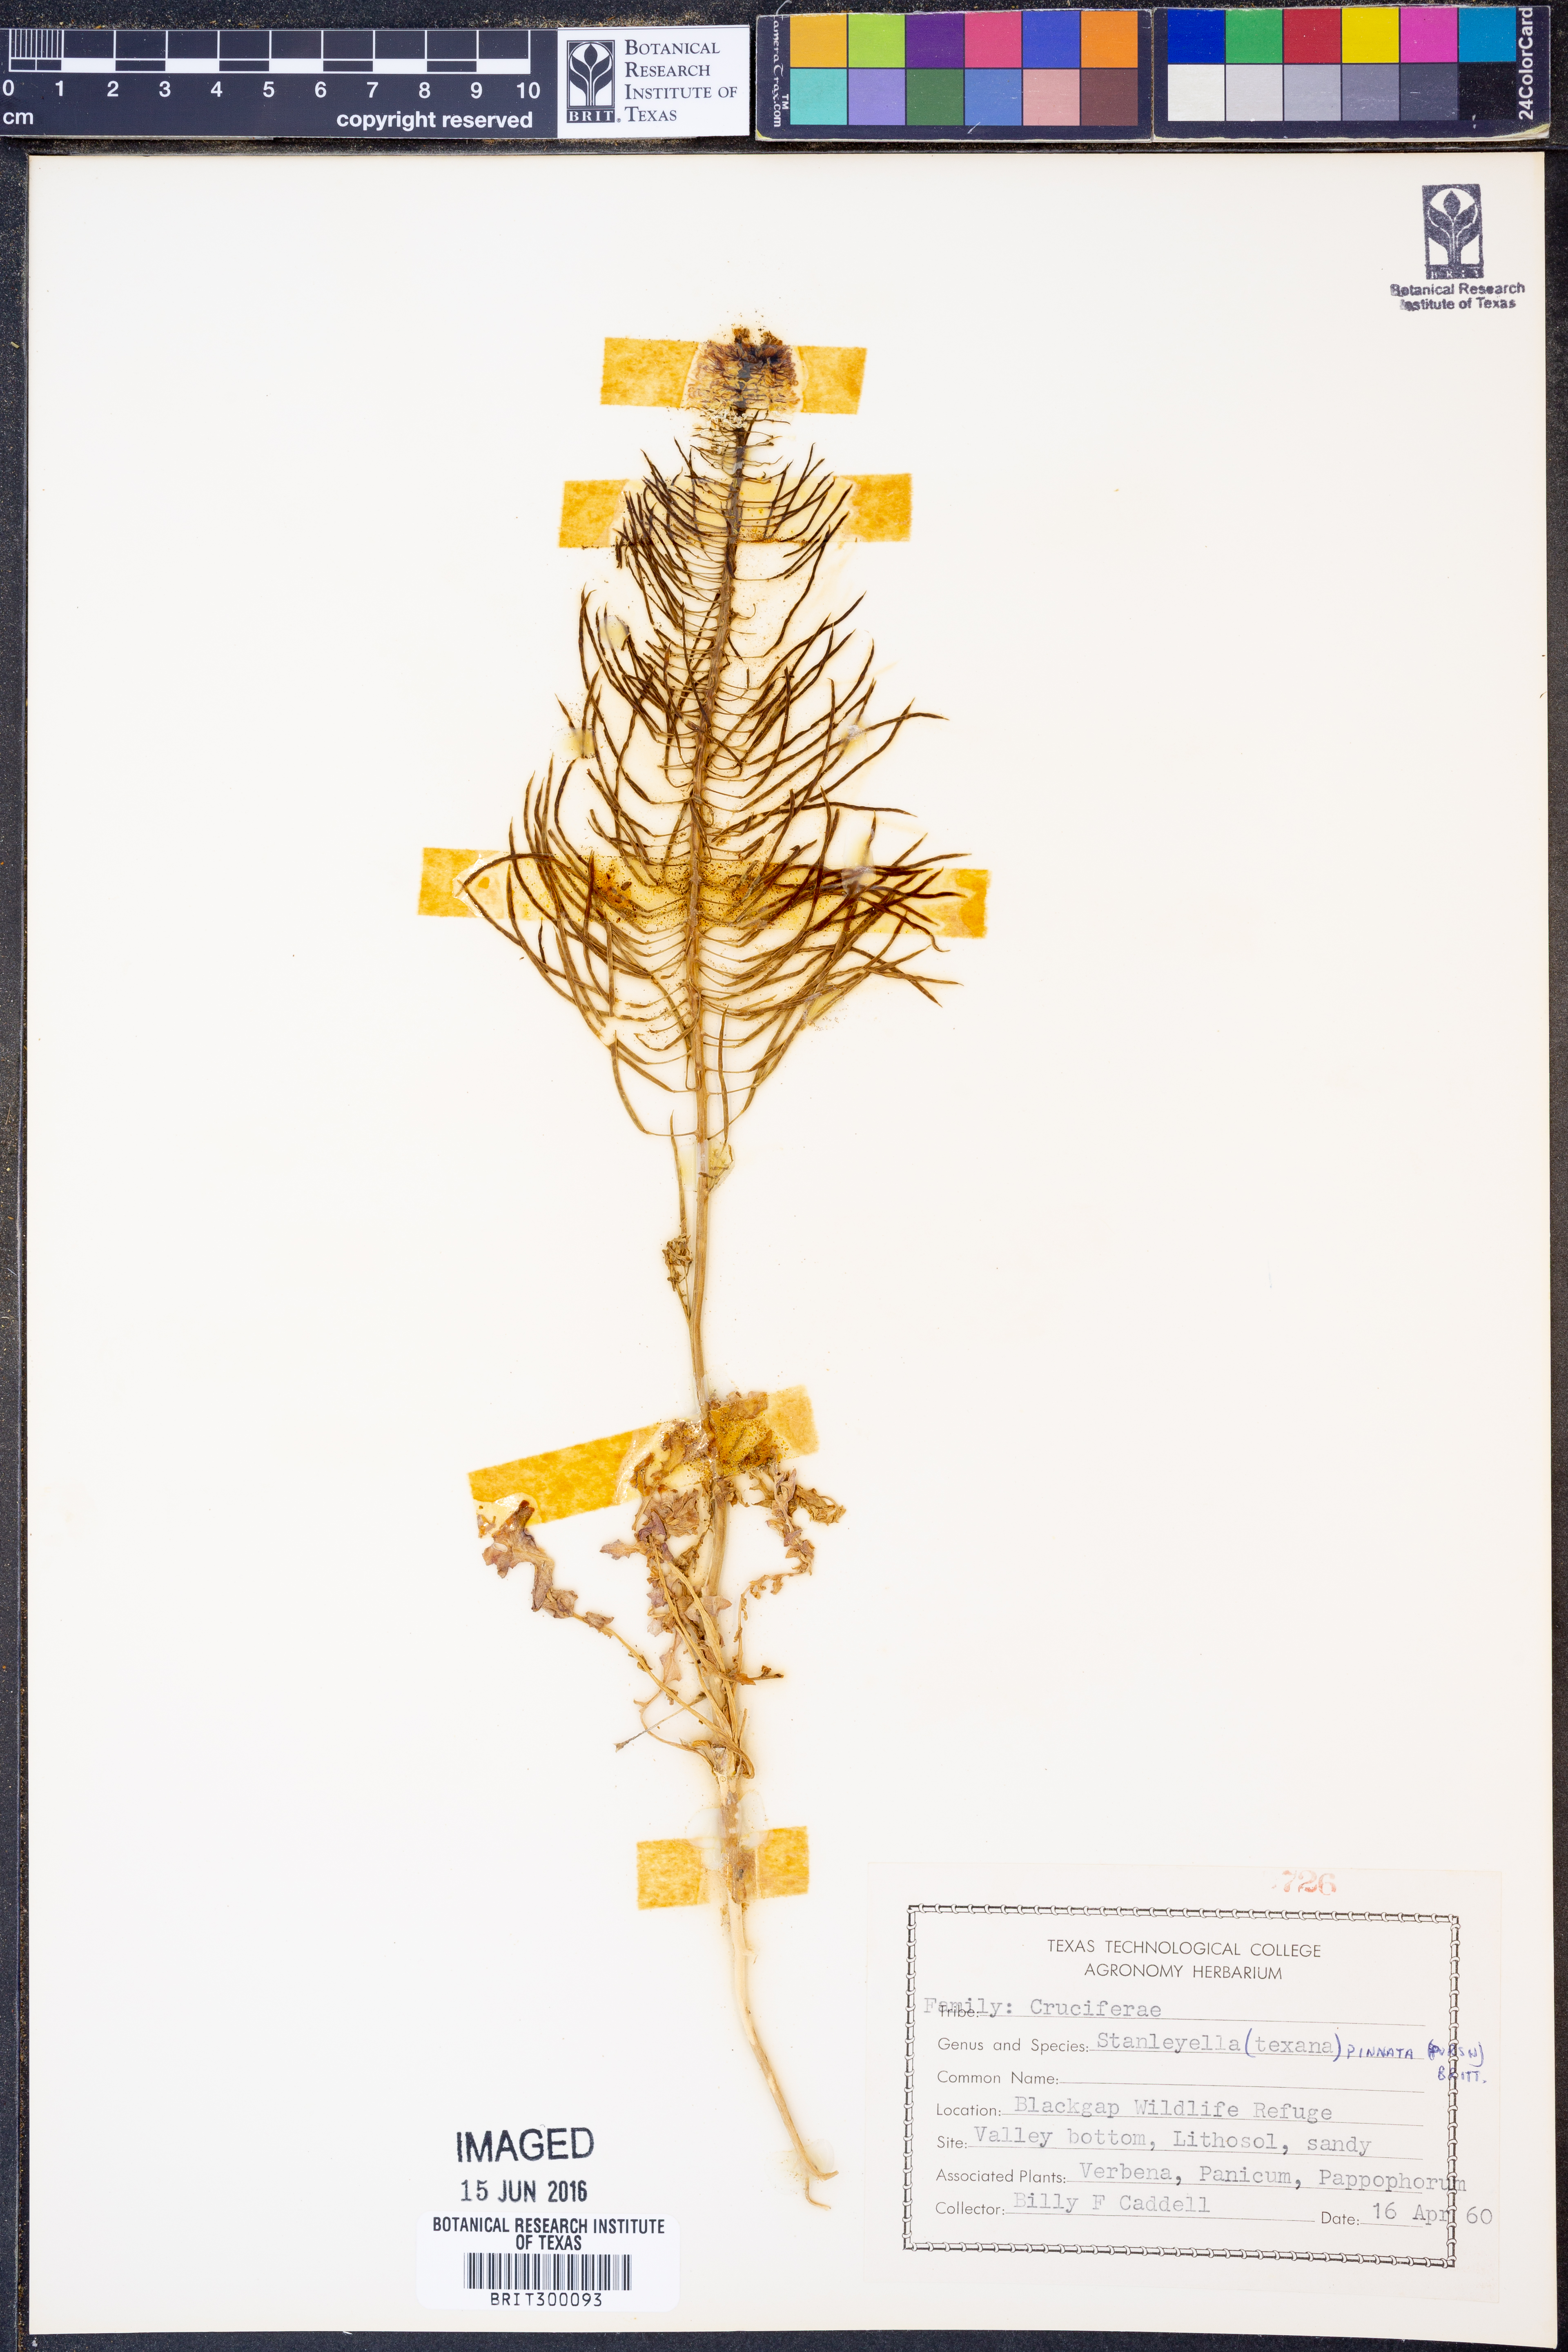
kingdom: Plantae
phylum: Tracheophyta
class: Magnoliopsida
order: Brassicales
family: Brassicaceae
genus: Thelypodium
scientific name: Thelypodium texanum
